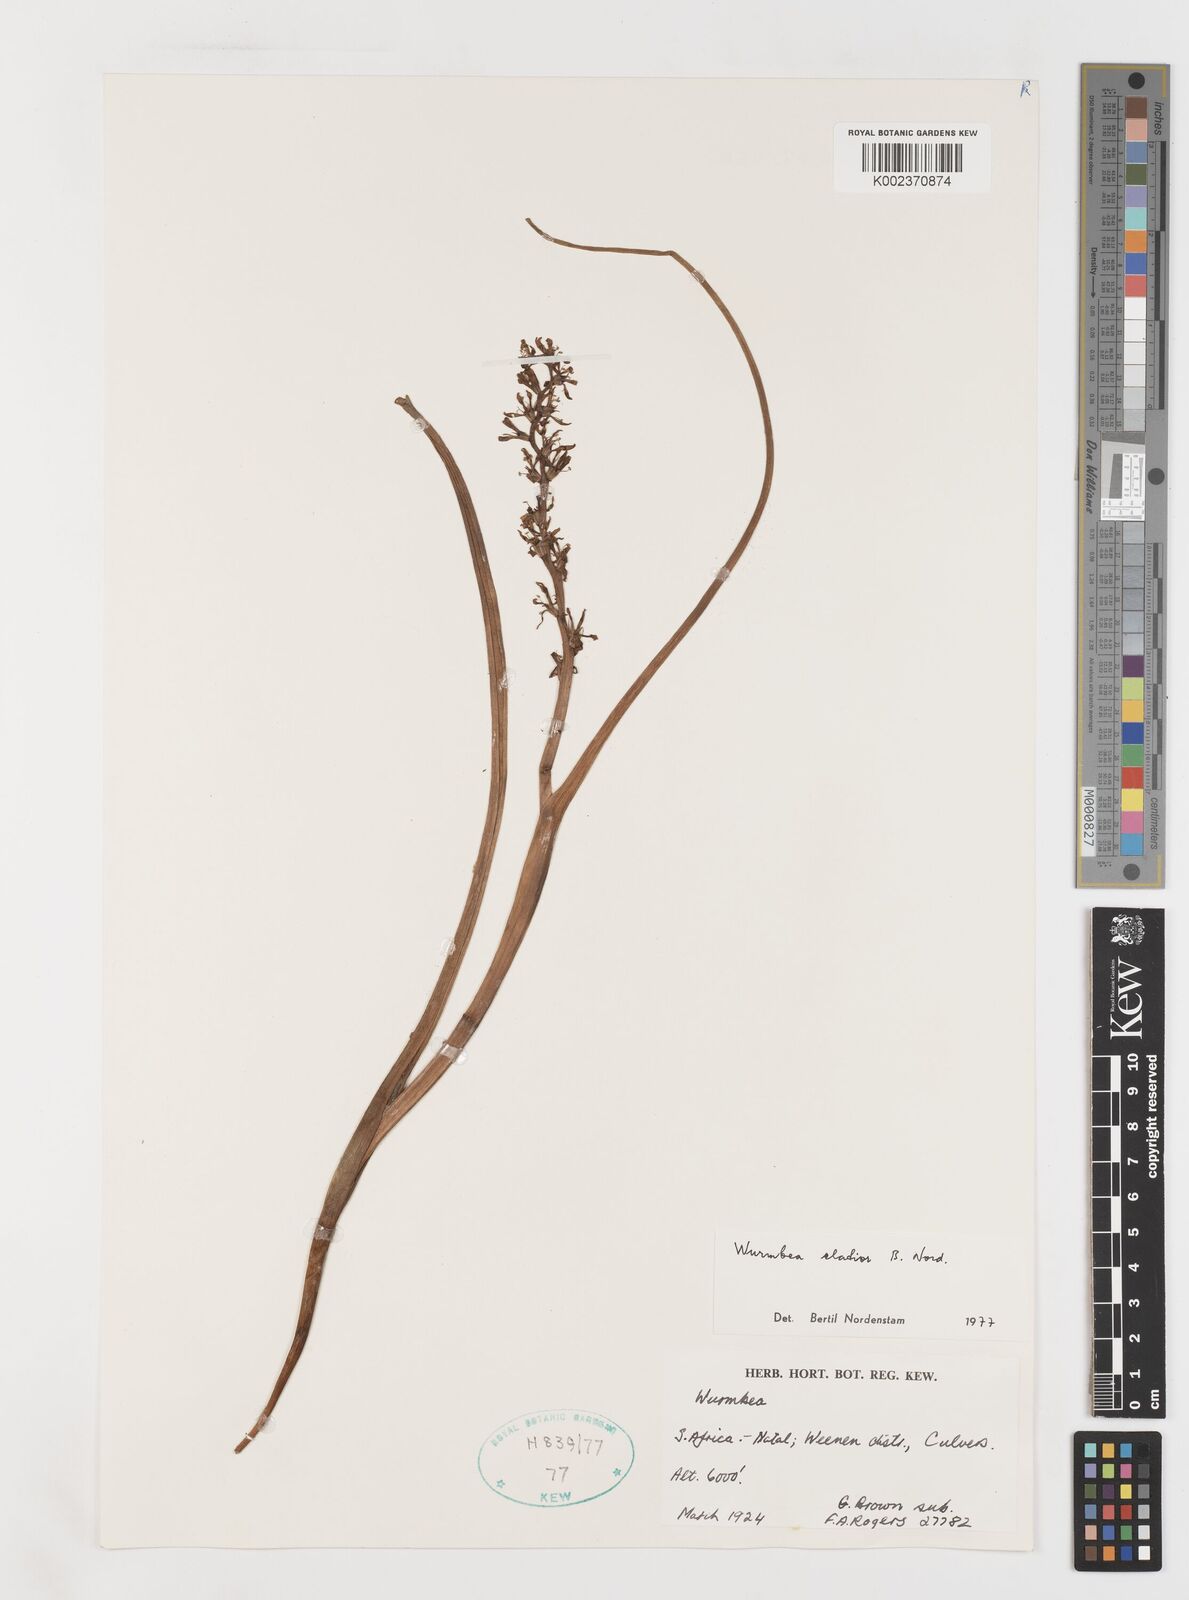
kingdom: Plantae
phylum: Tracheophyta
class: Liliopsida
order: Liliales
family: Colchicaceae
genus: Wurmbea
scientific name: Wurmbea elatior
